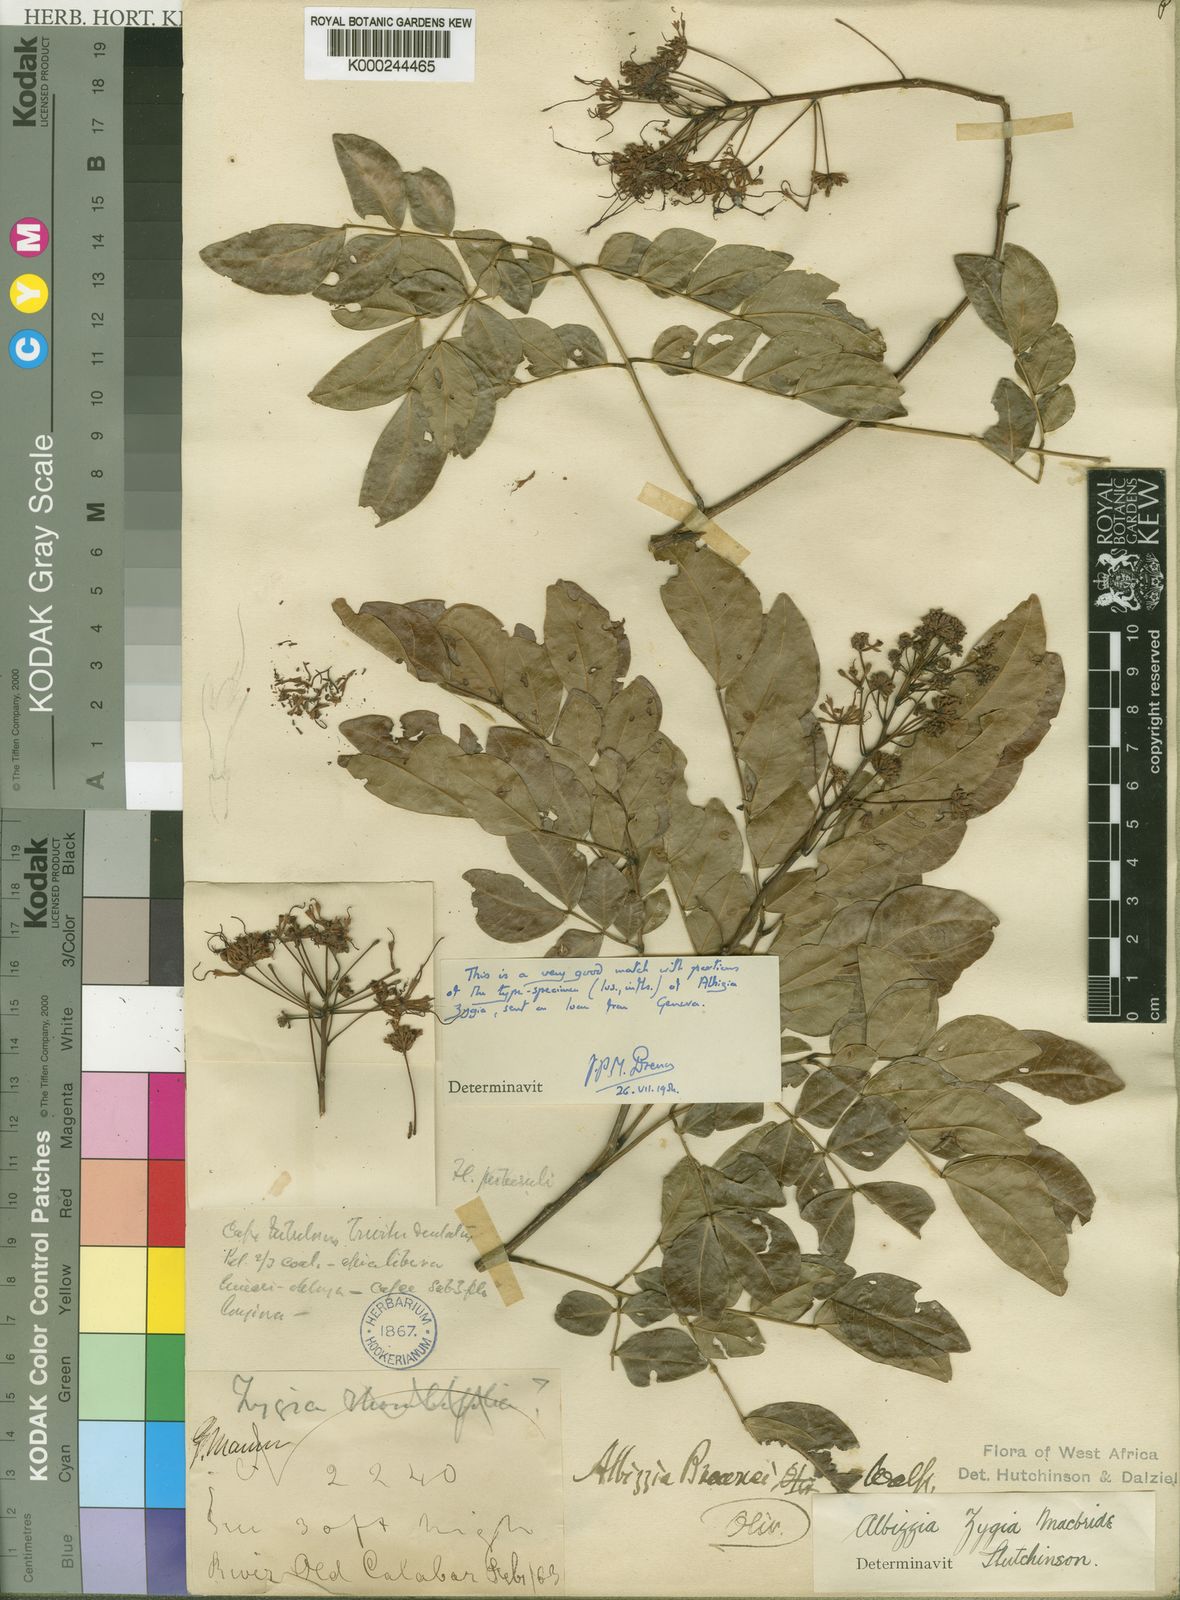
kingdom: Plantae
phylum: Tracheophyta
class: Magnoliopsida
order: Fabales
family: Fabaceae
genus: Albizia
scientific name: Albizia zygia
